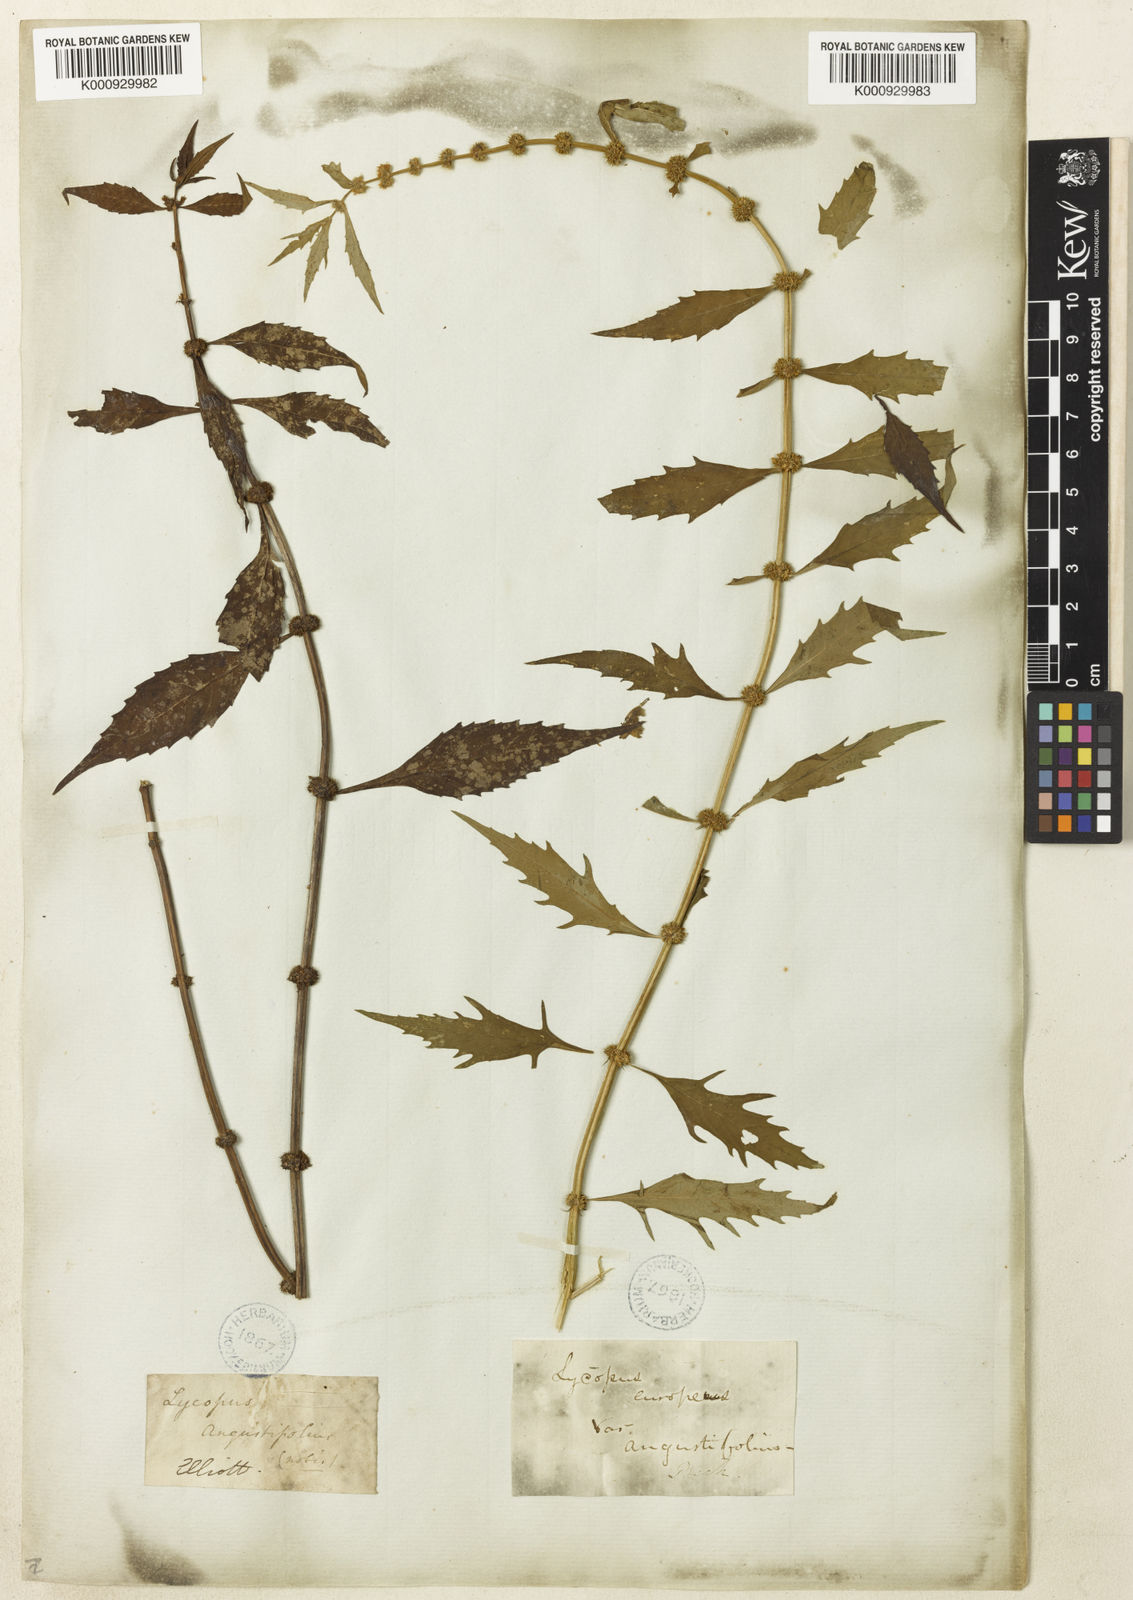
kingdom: Plantae
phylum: Tracheophyta
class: Magnoliopsida
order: Lamiales
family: Lamiaceae
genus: Lycopus
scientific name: Lycopus
